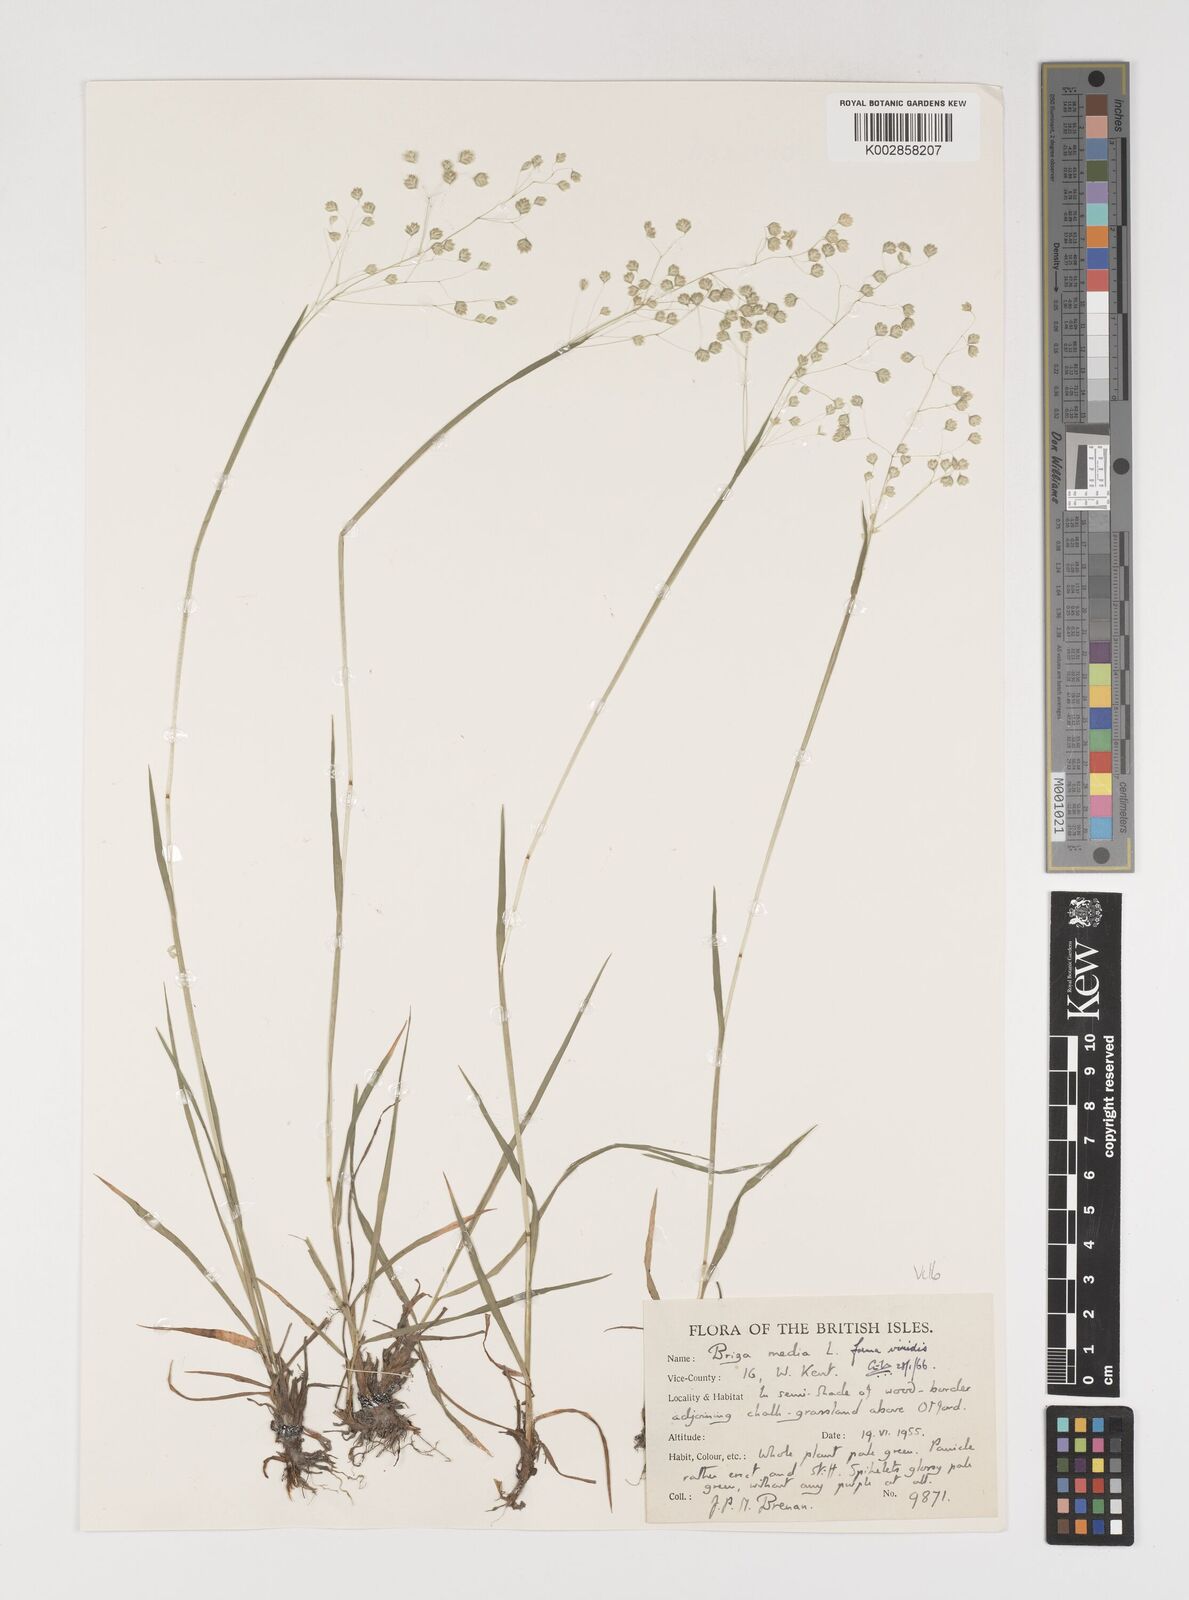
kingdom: Plantae
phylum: Tracheophyta
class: Liliopsida
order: Poales
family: Poaceae
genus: Briza
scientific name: Briza media
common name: Quaking grass
